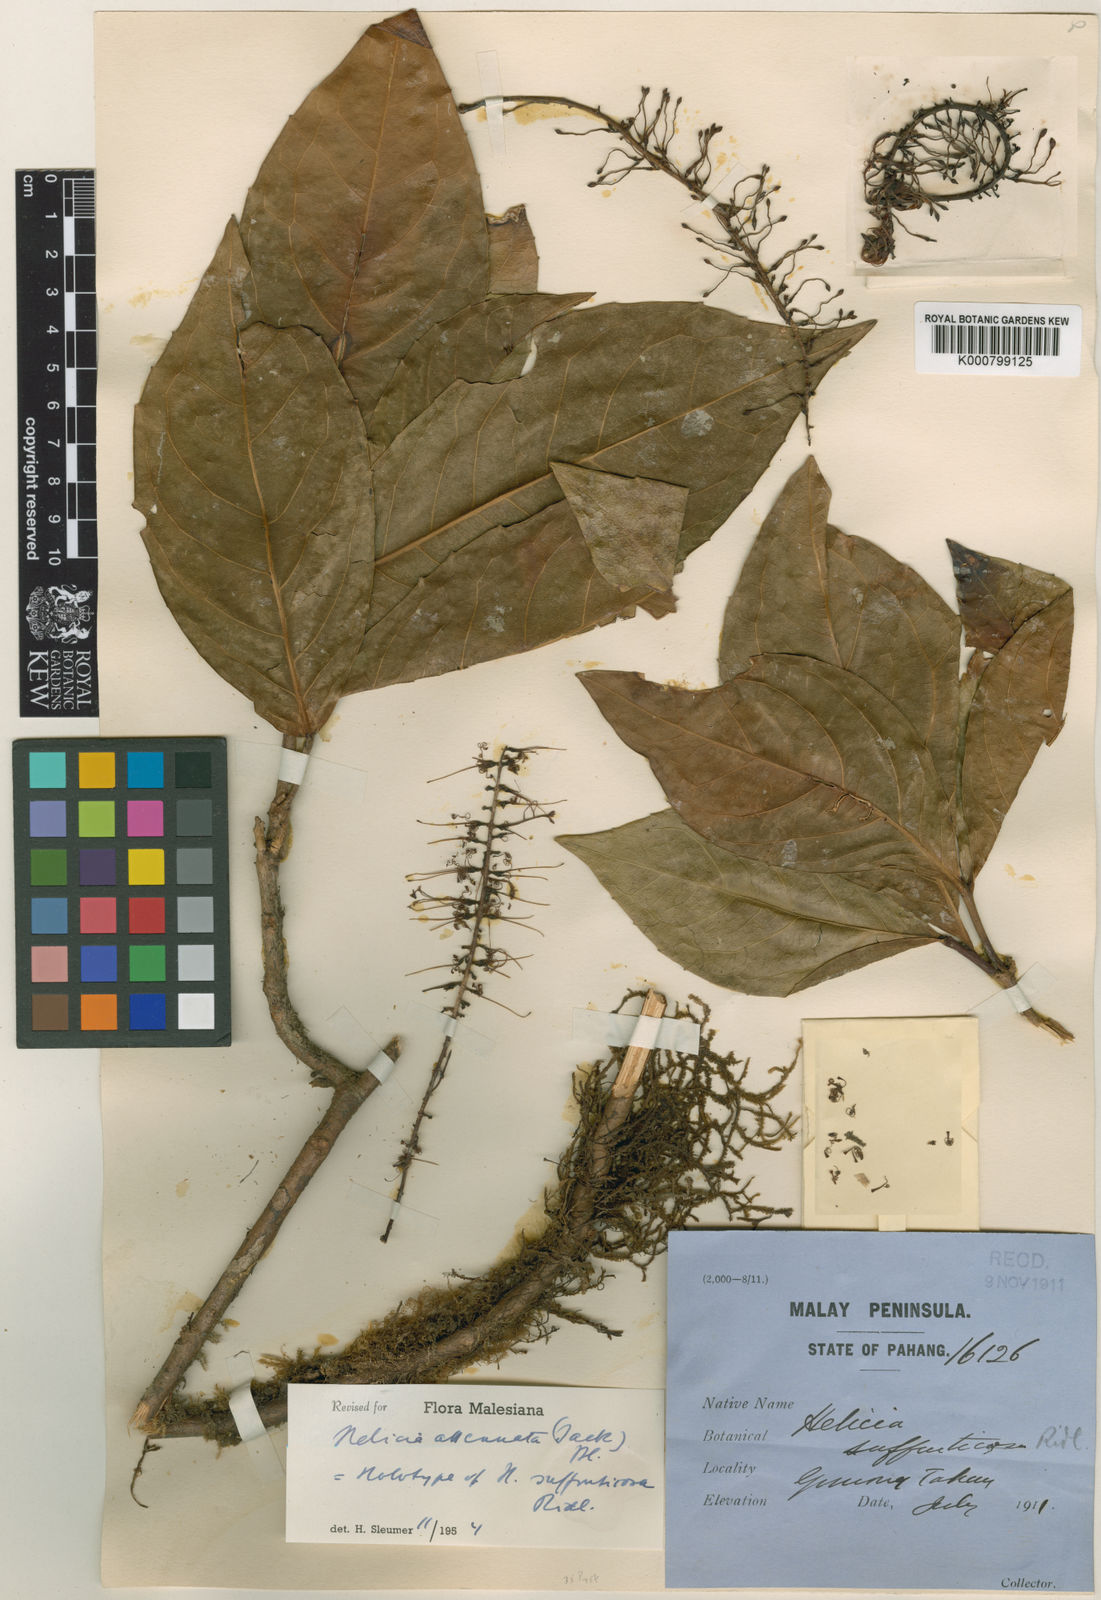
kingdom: Plantae
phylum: Tracheophyta
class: Magnoliopsida
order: Proteales
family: Proteaceae
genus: Helicia
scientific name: Helicia attenuata
